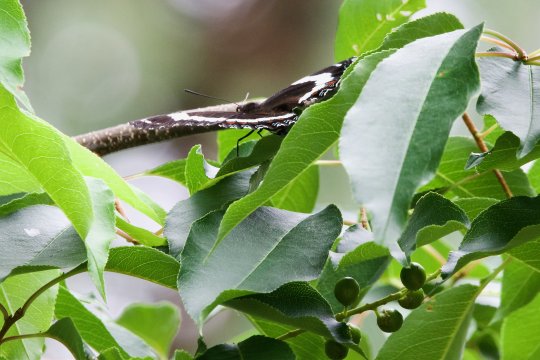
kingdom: Animalia
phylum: Arthropoda
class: Insecta
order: Lepidoptera
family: Nymphalidae
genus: Limenitis
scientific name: Limenitis arthemis
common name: Red-spotted Admiral
